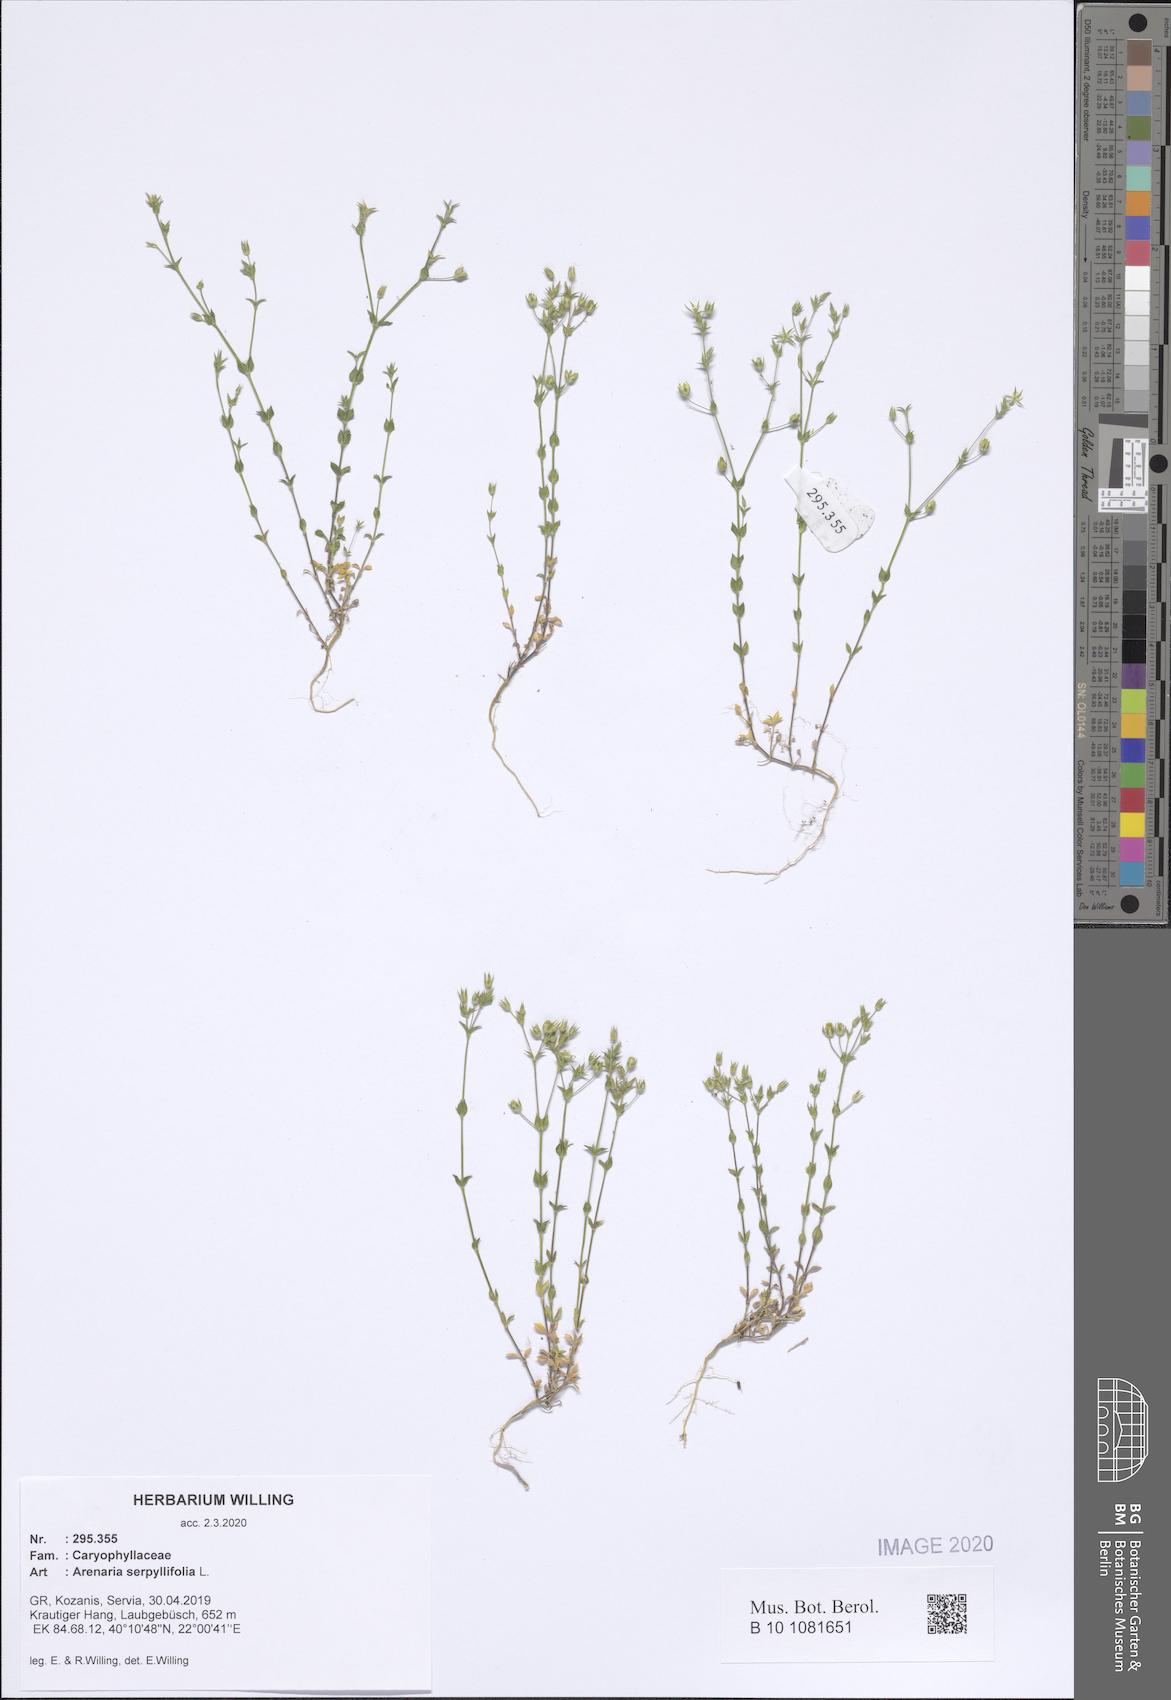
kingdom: Plantae
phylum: Tracheophyta
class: Magnoliopsida
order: Caryophyllales
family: Caryophyllaceae
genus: Arenaria
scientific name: Arenaria serpyllifolia
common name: Thyme-leaved sandwort
